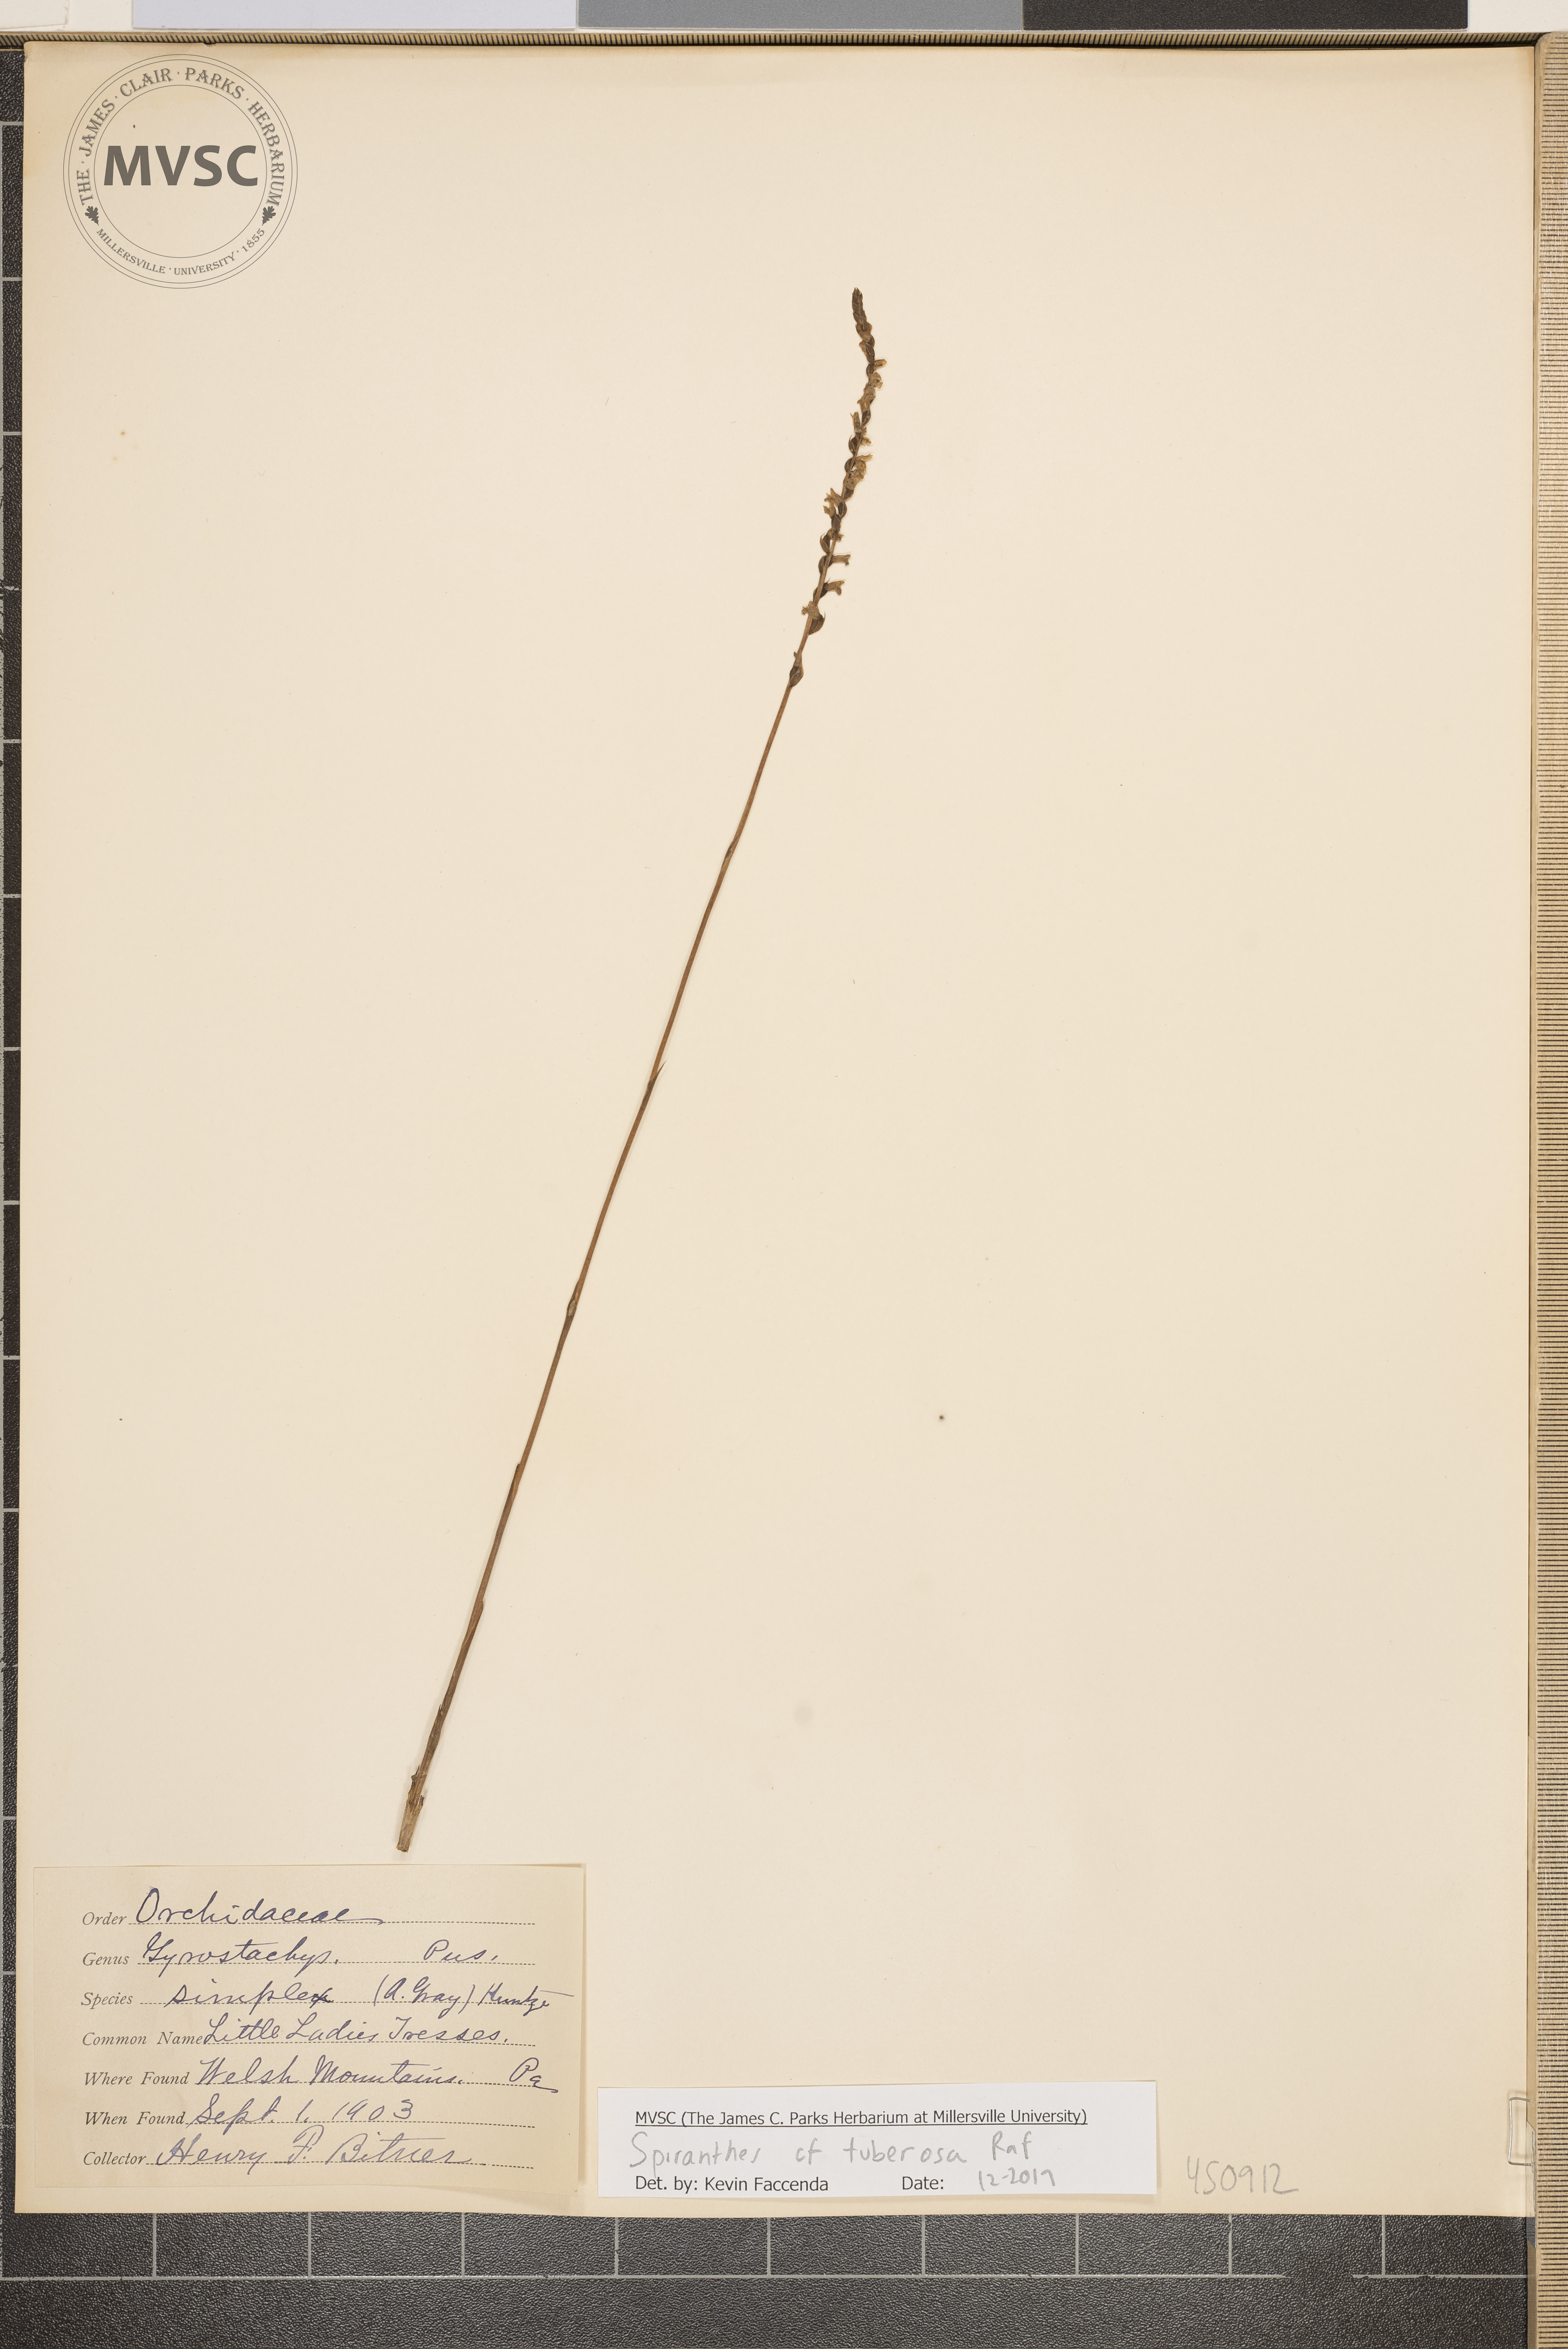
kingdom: Plantae
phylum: Tracheophyta
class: Liliopsida
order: Asparagales
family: Orchidaceae
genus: Spiranthes
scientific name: Spiranthes tuberosa
